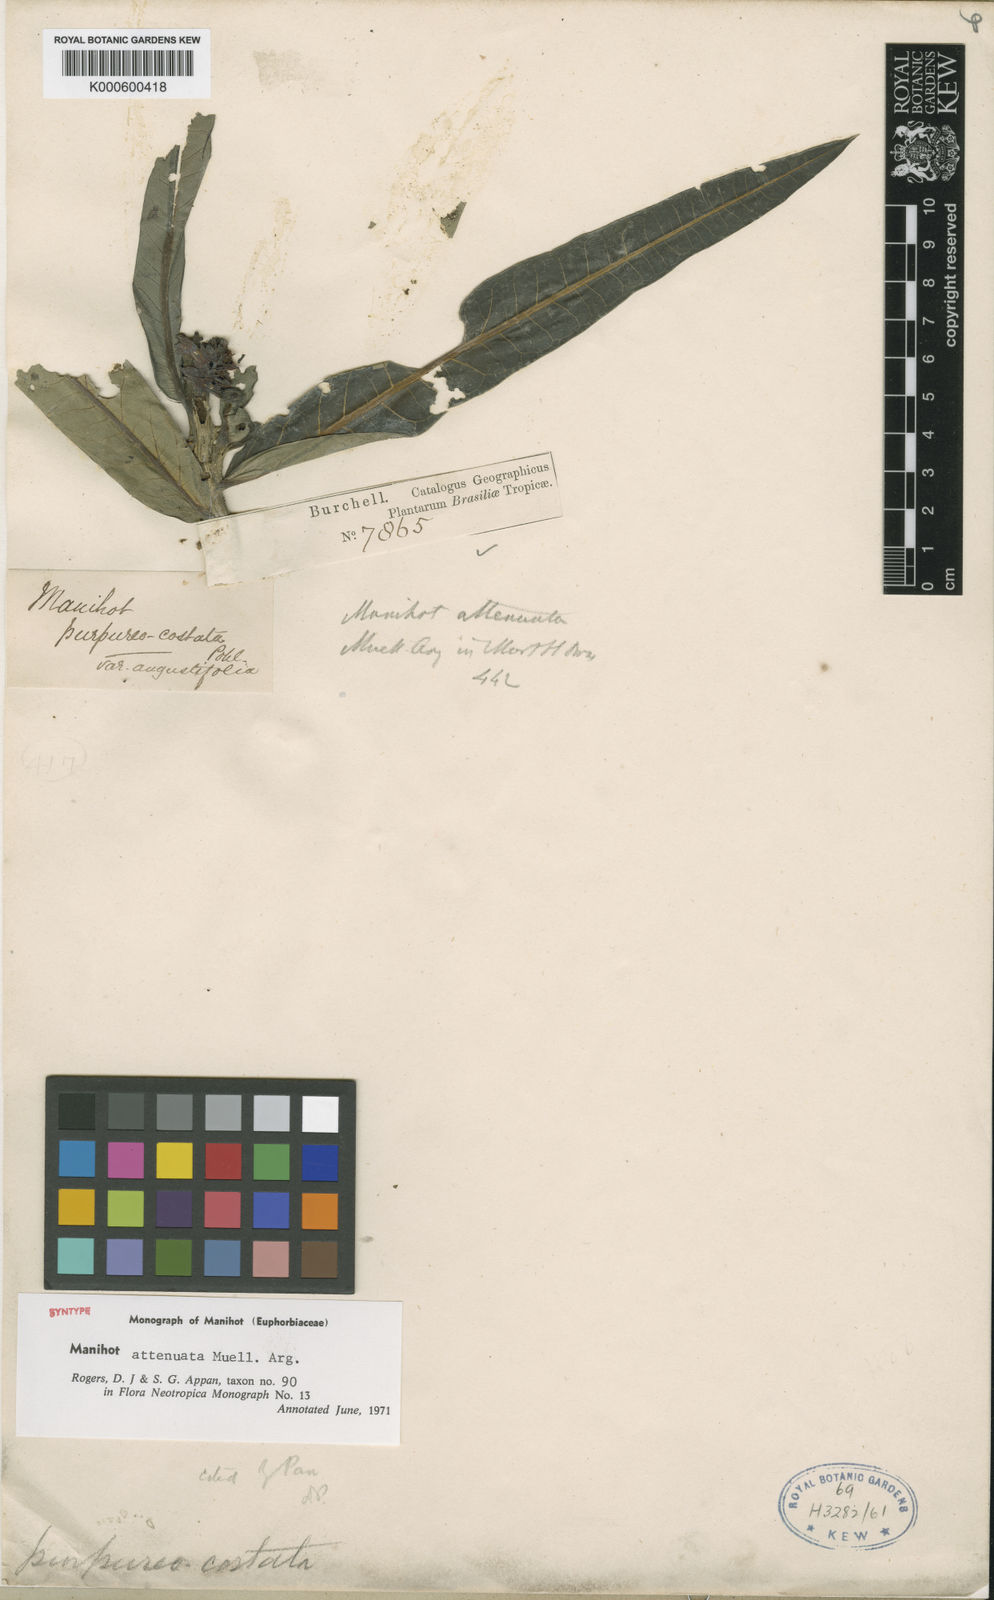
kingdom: Plantae
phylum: Tracheophyta
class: Magnoliopsida
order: Malpighiales
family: Euphorbiaceae
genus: Manihot
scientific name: Manihot
